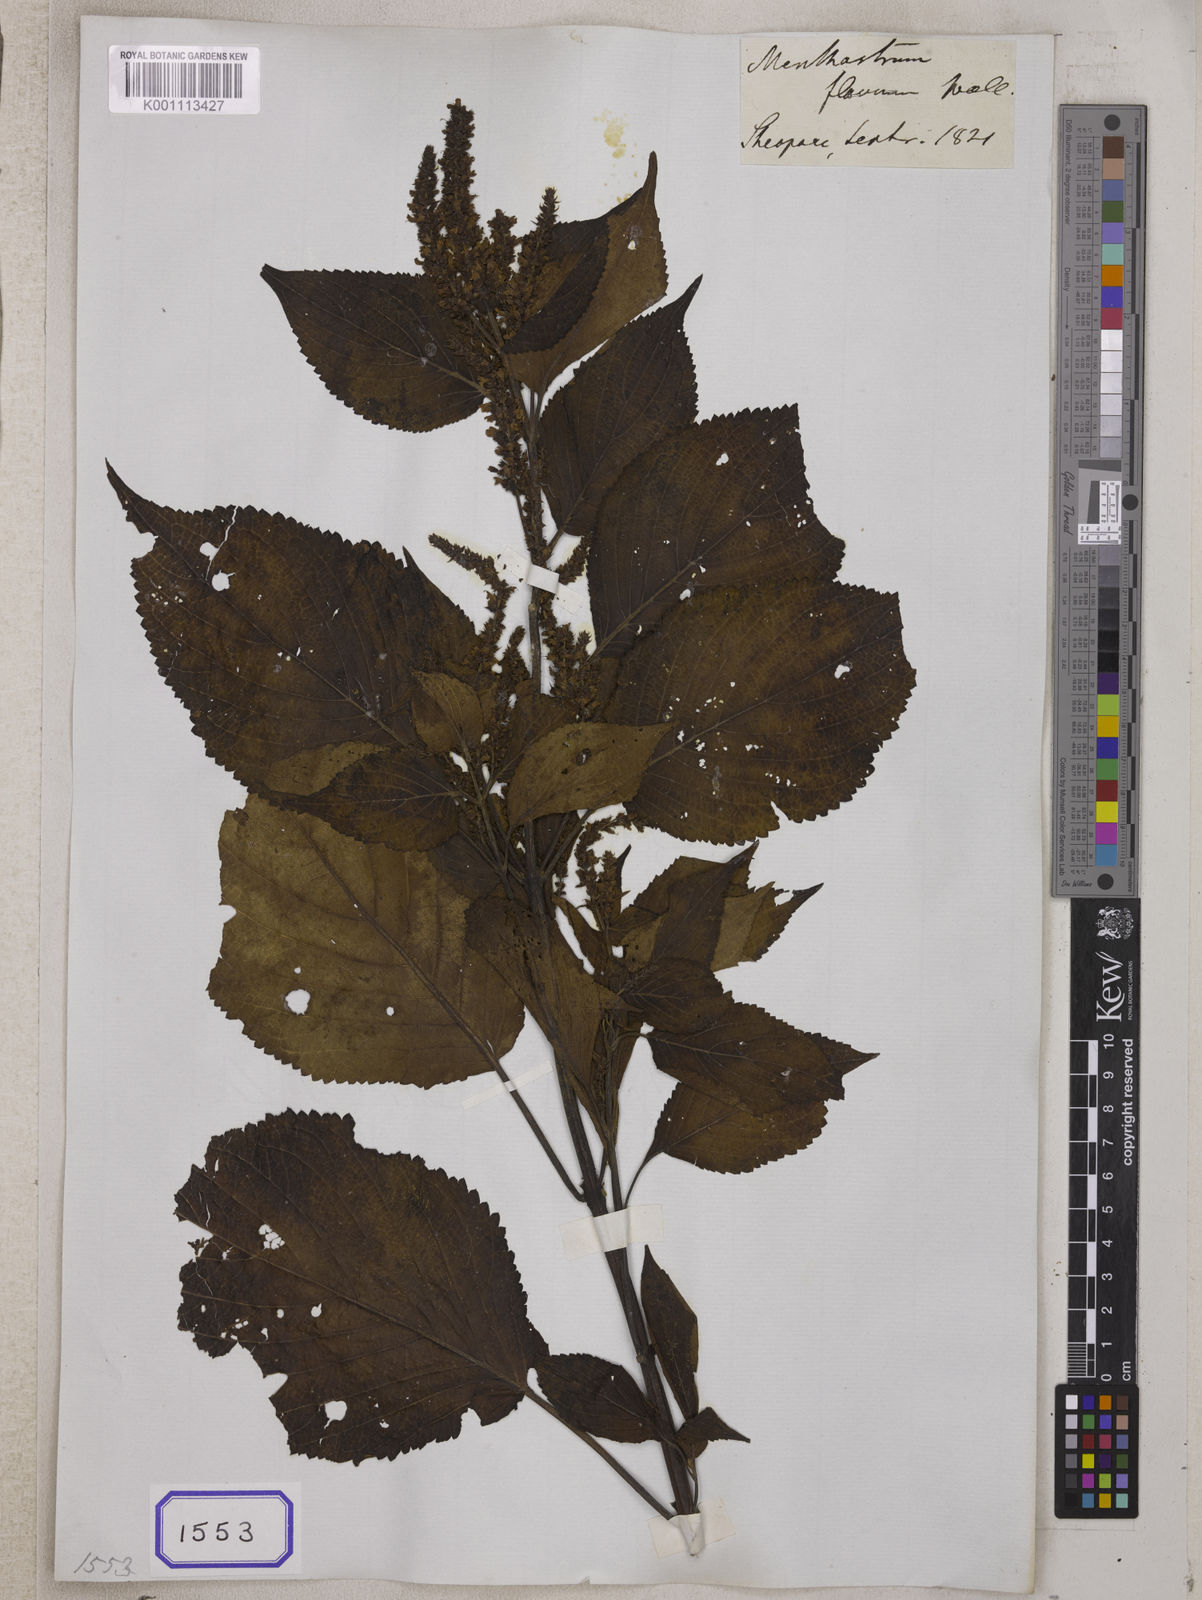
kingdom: Plantae
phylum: Tracheophyta
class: Magnoliopsida
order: Lamiales
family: Lamiaceae
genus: Elsholtzia
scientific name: Elsholtzia flava
